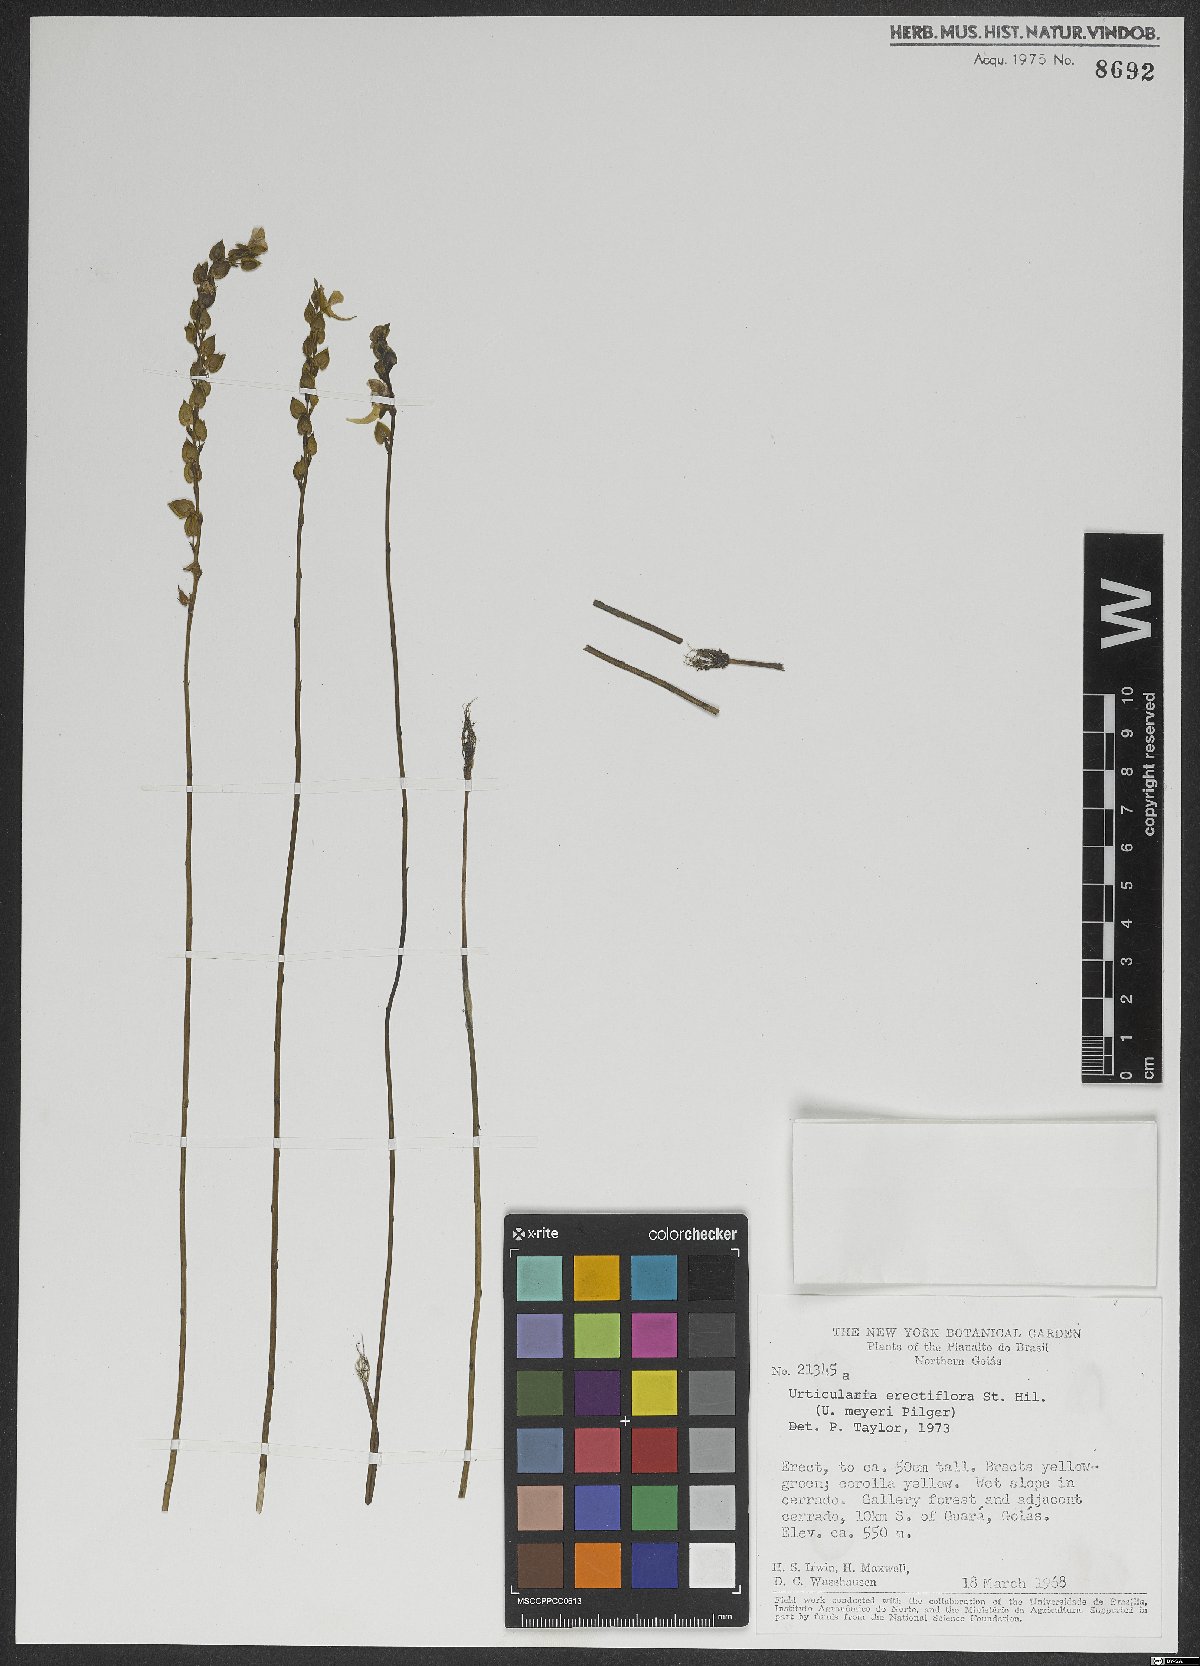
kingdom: Plantae
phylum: Tracheophyta
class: Magnoliopsida
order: Lamiales
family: Lentibulariaceae
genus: Utricularia
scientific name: Utricularia erectiflora
